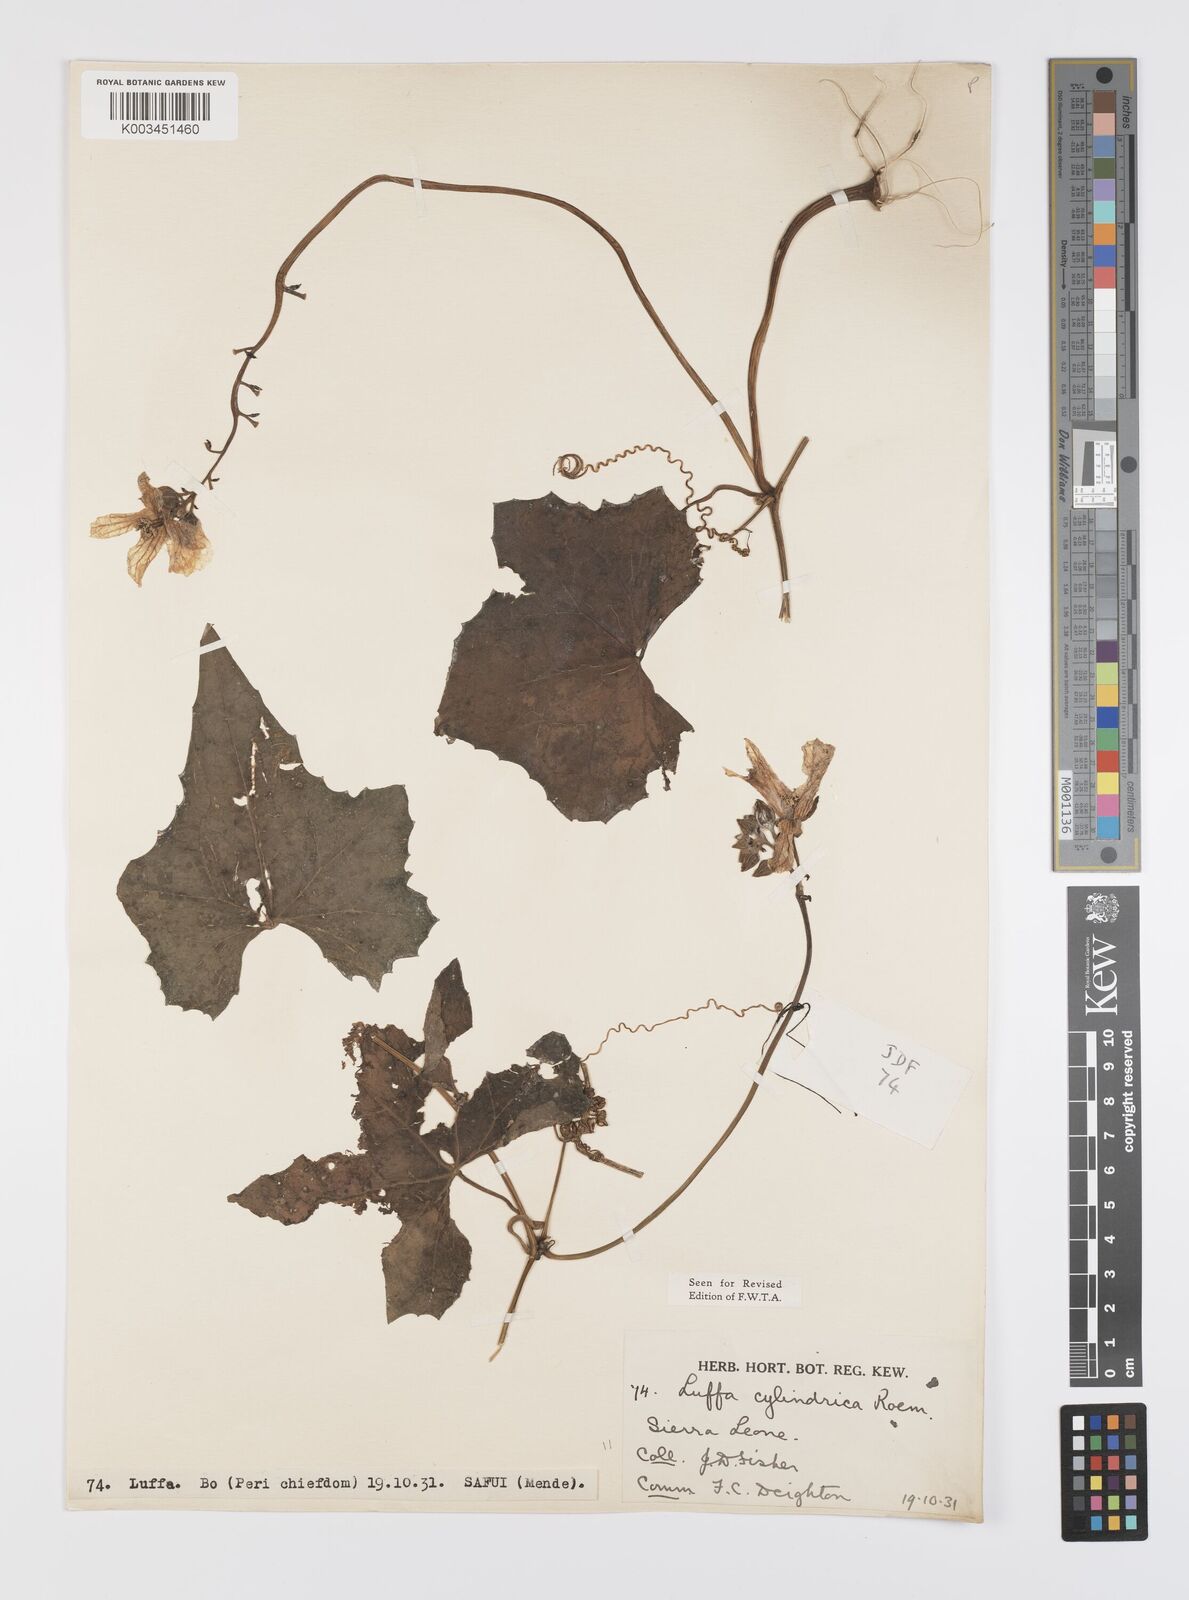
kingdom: Plantae
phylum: Tracheophyta
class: Magnoliopsida
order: Cucurbitales
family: Cucurbitaceae
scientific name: Cucurbitaceae
